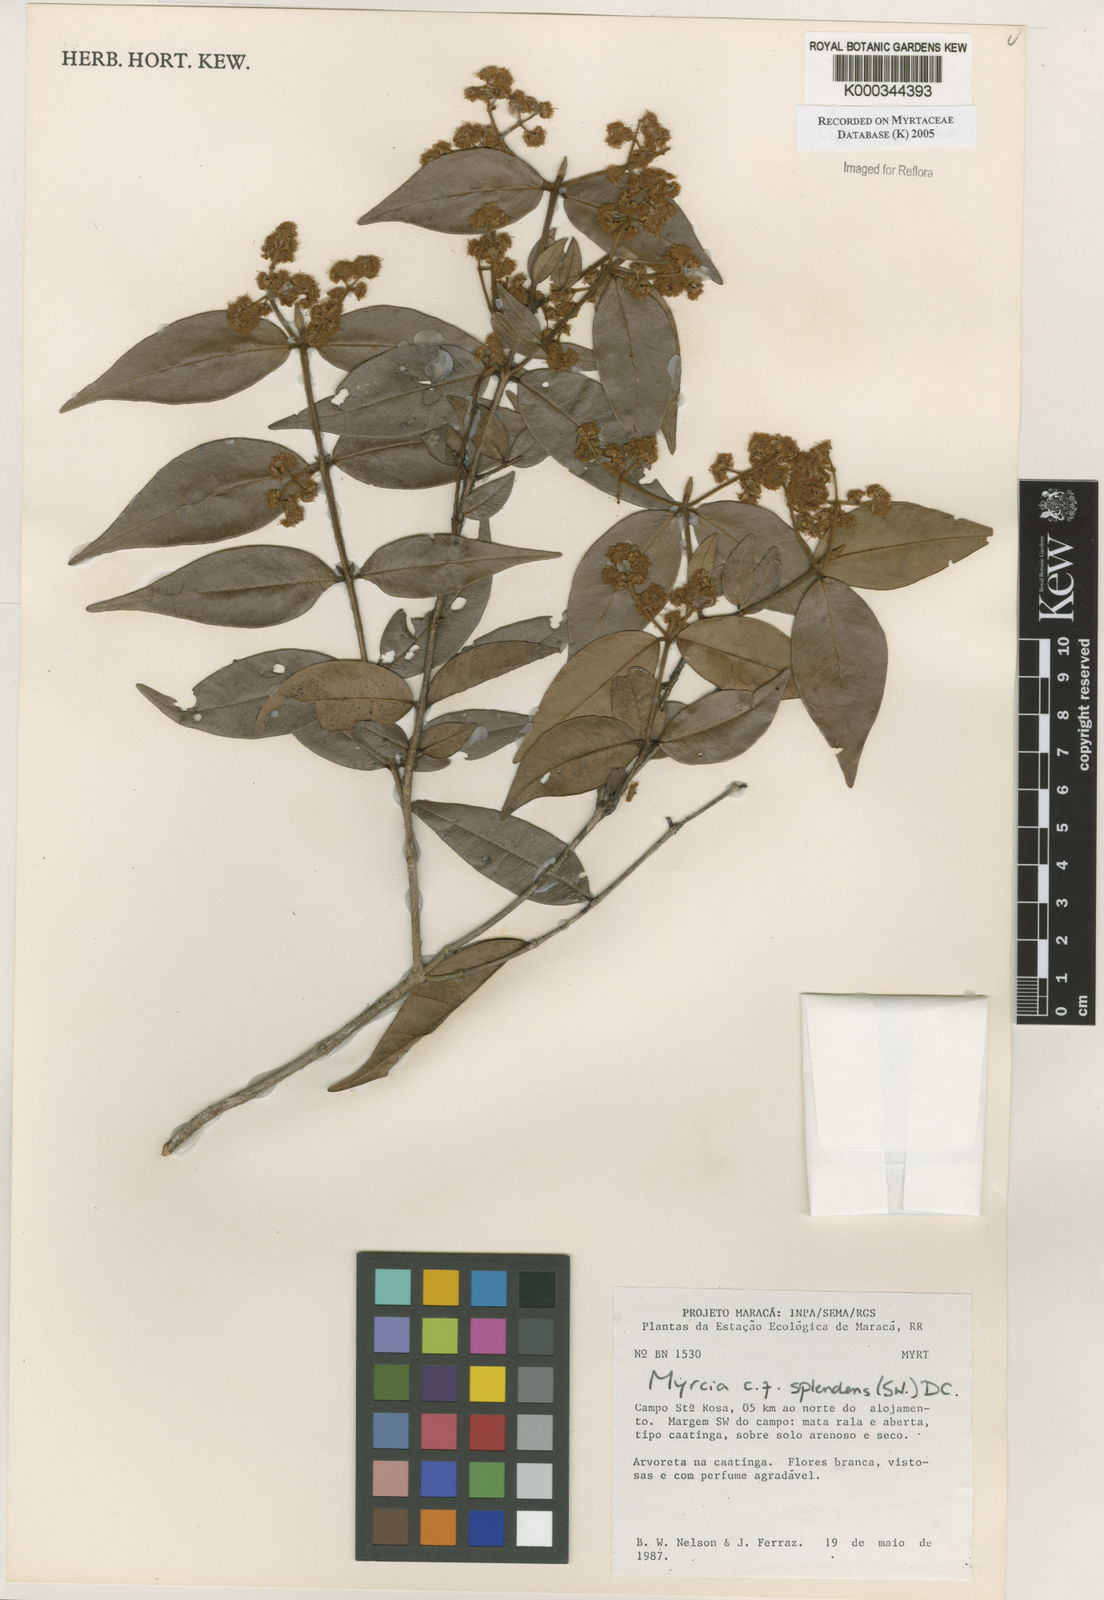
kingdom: Plantae
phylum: Tracheophyta
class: Magnoliopsida
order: Myrtales
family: Myrtaceae
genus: Myrcia
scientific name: Myrcia splendens
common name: Surinam cherry
